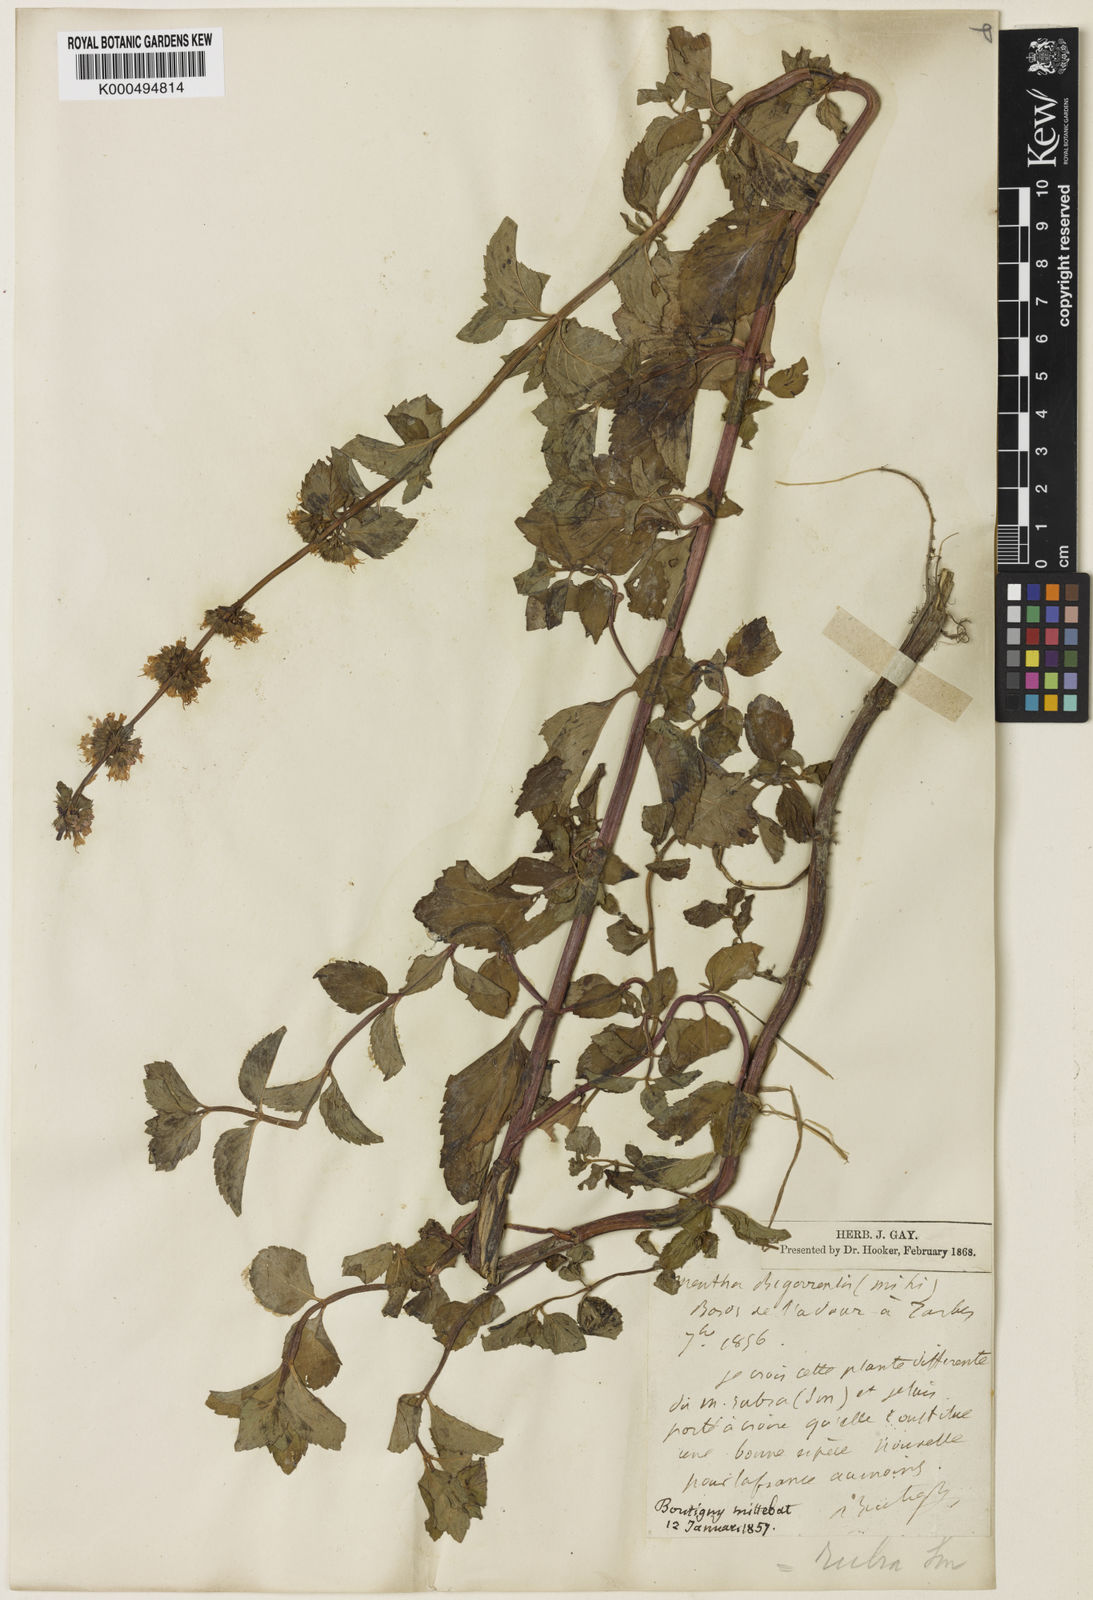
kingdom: Plantae
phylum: Tracheophyta
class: Magnoliopsida
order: Lamiales
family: Lamiaceae
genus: Mentha
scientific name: Mentha wirtgeniana
